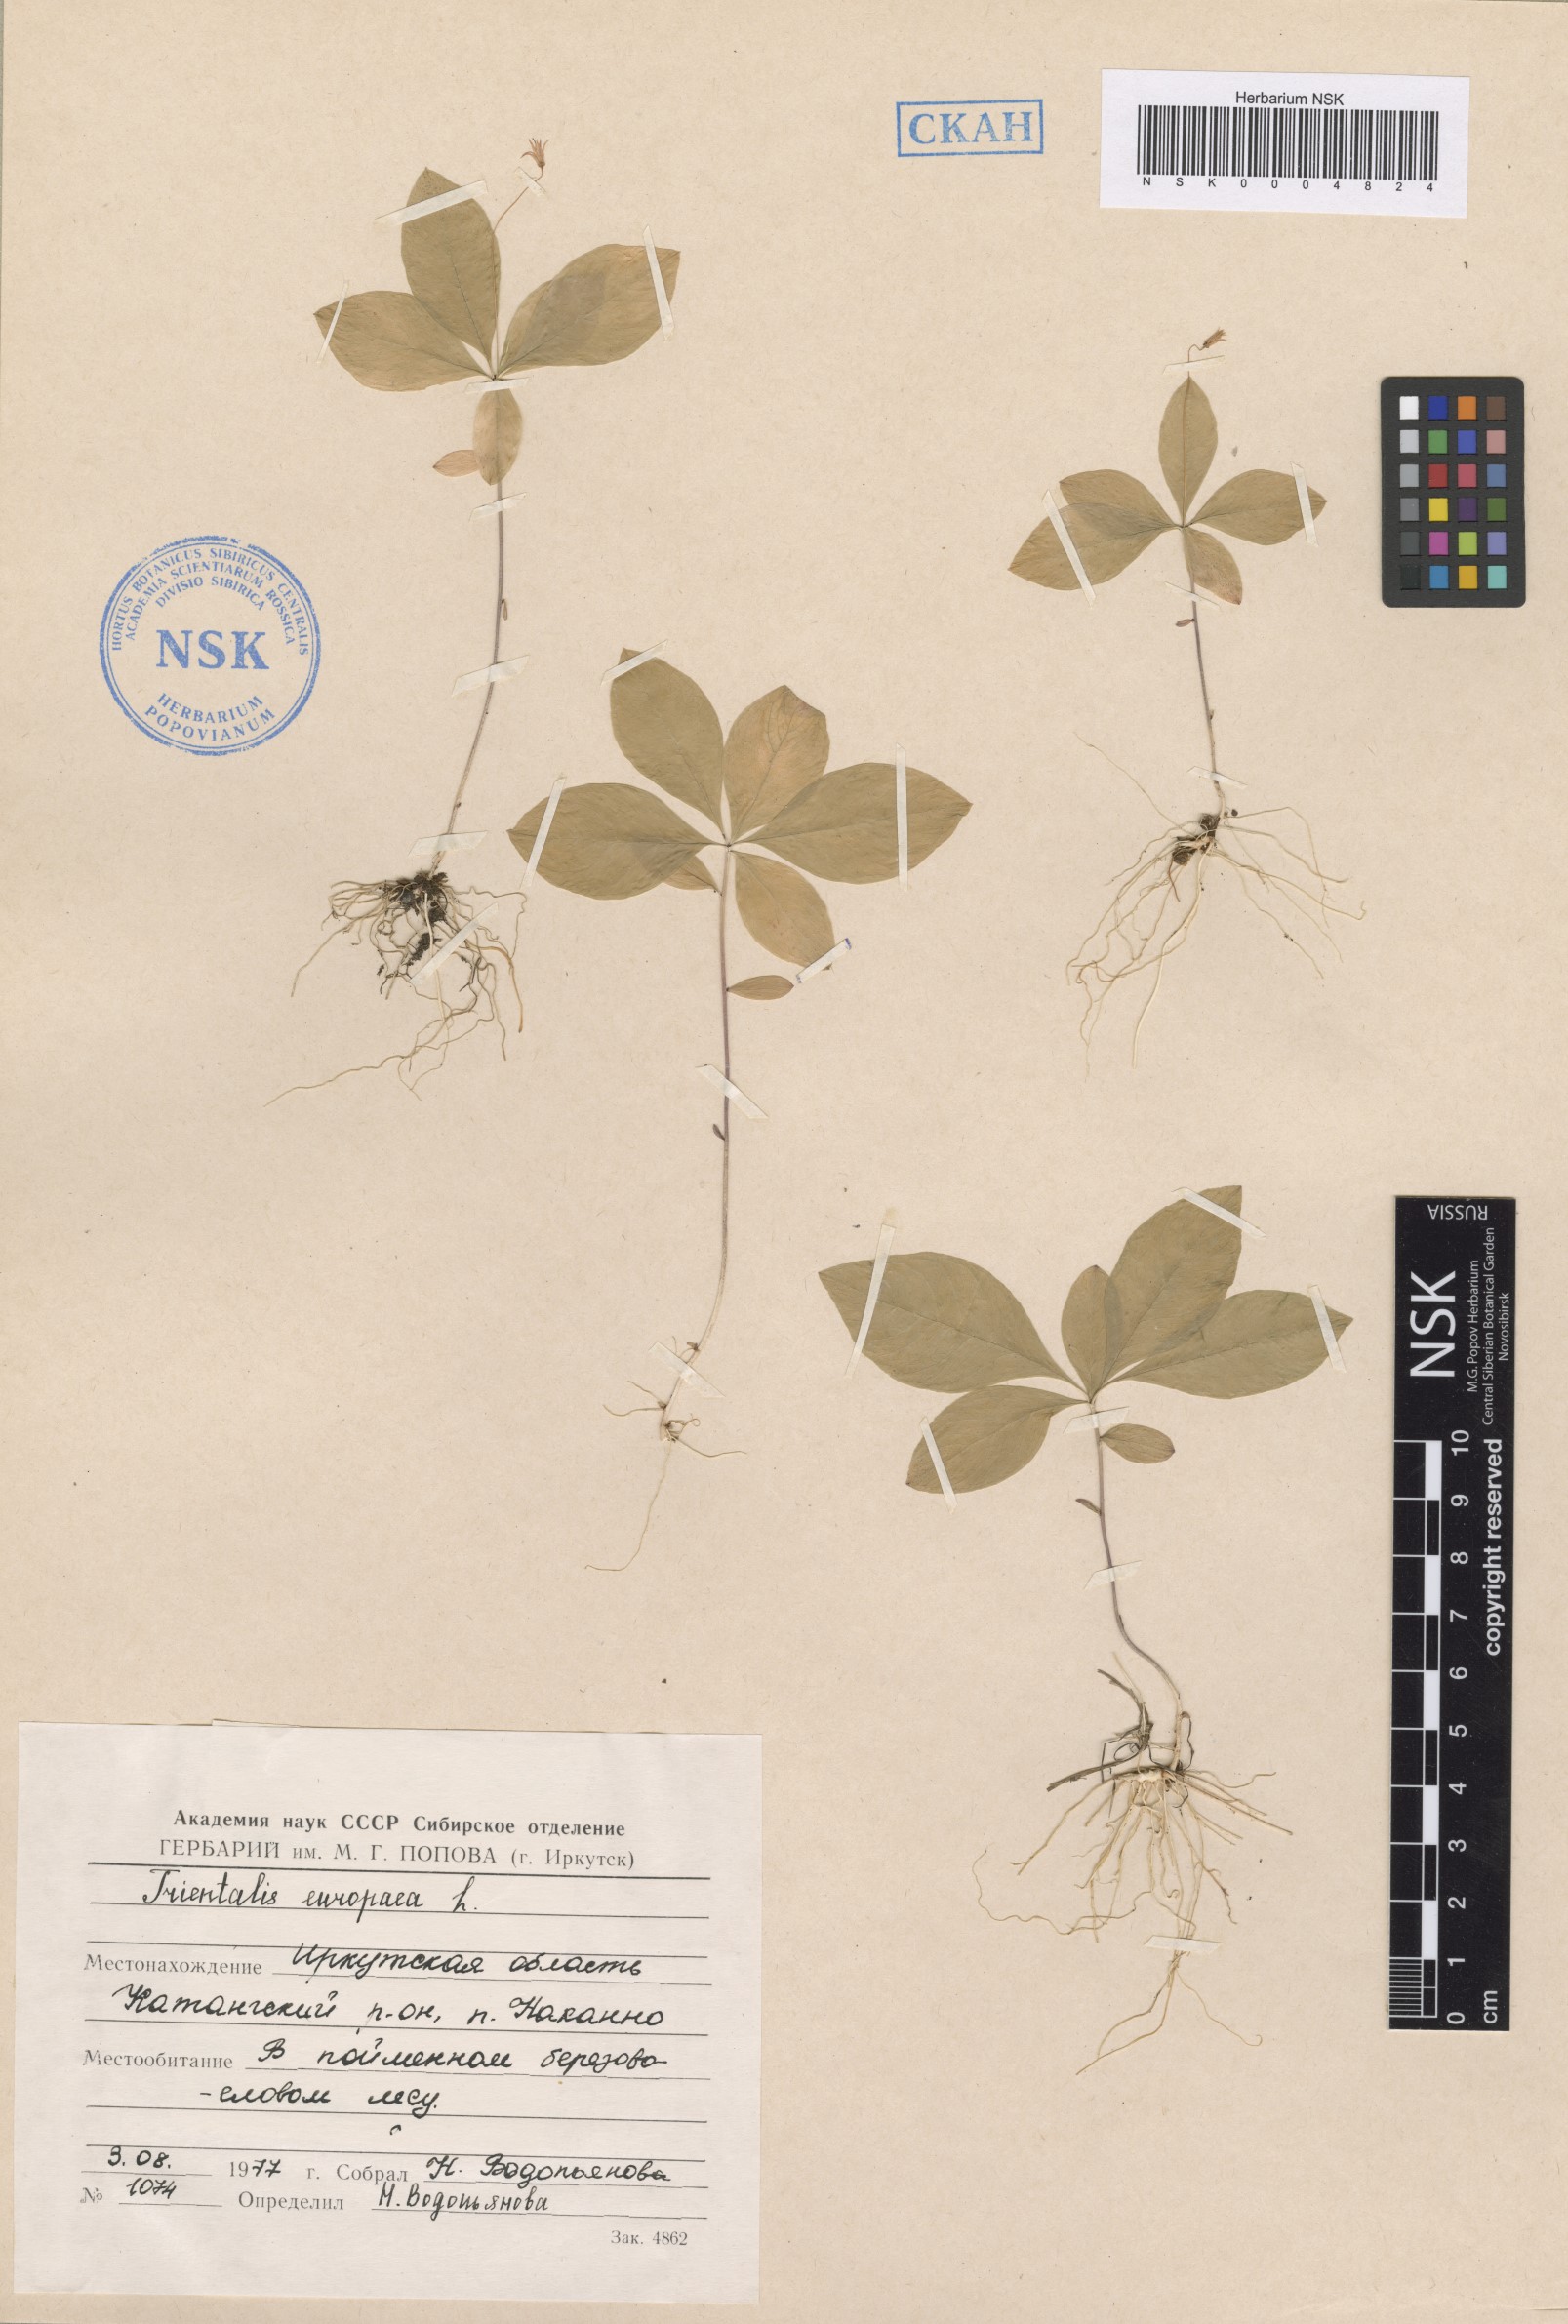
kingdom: Plantae
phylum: Tracheophyta
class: Magnoliopsida
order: Ericales
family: Primulaceae
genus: Lysimachia
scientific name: Lysimachia europaea
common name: Arctic starflower
